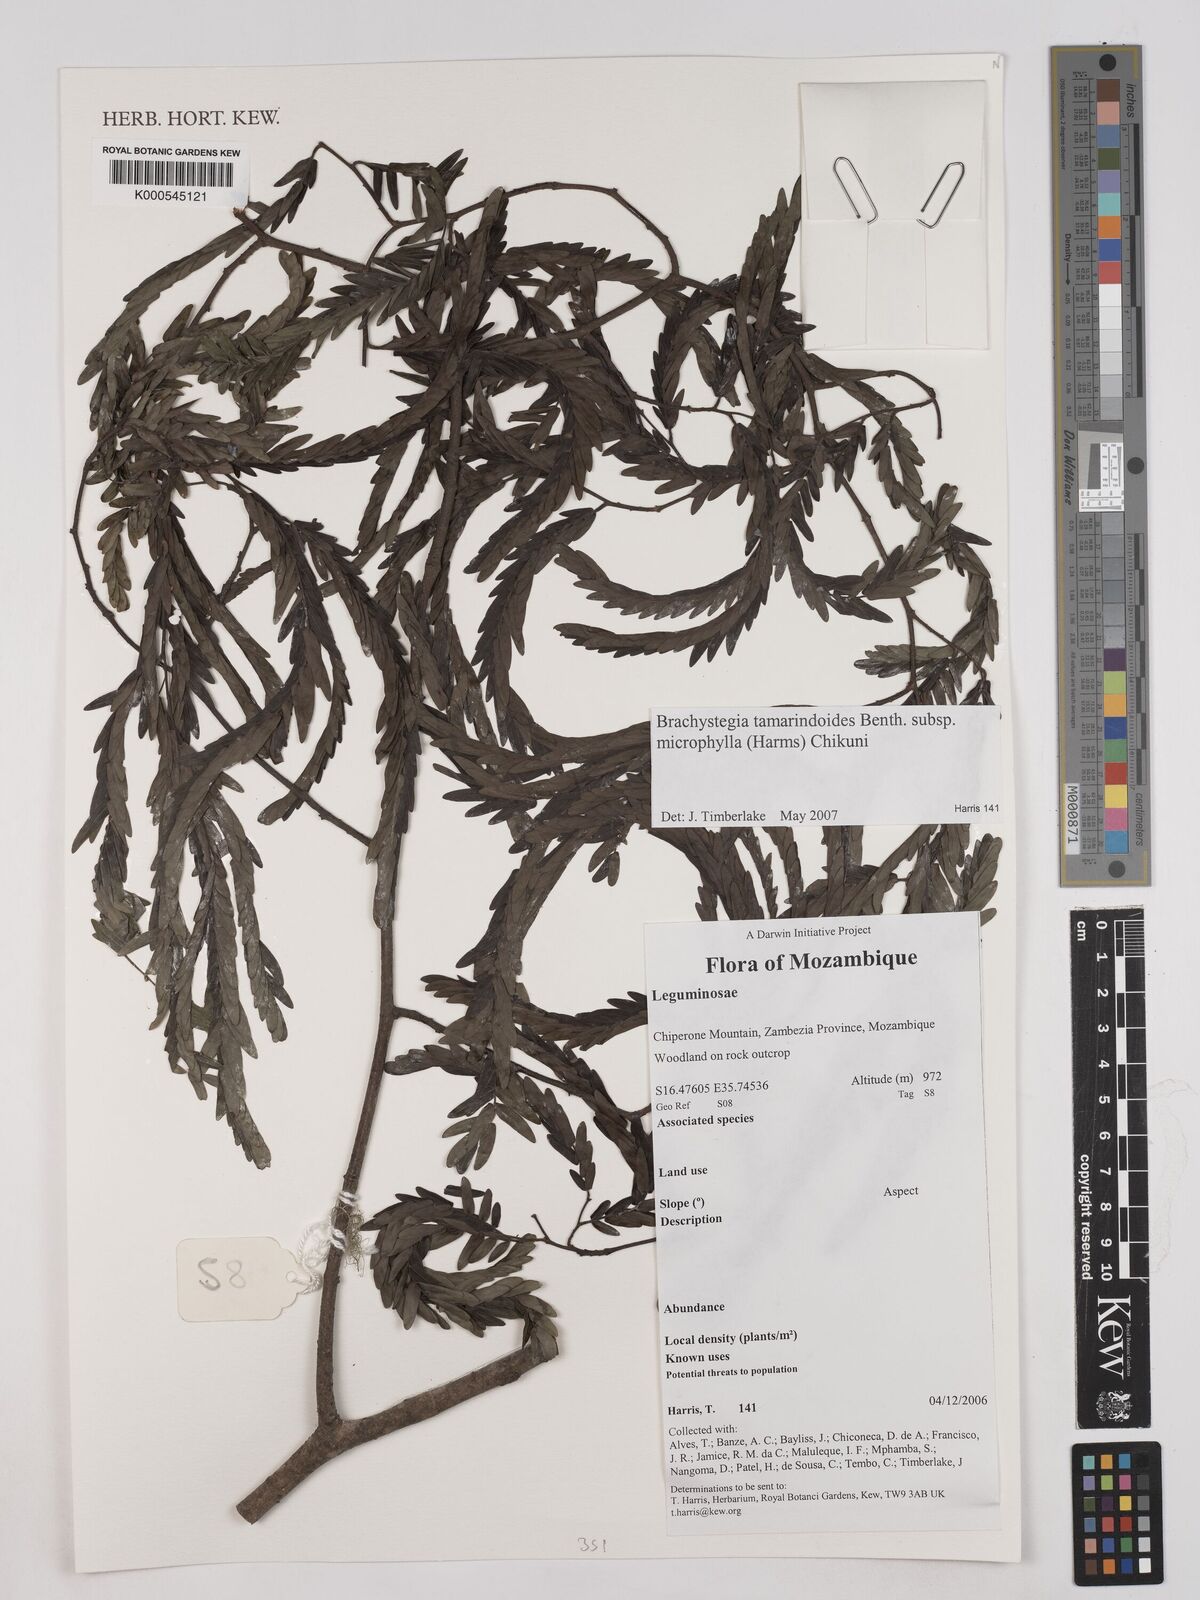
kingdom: Plantae
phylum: Tracheophyta
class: Magnoliopsida
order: Fabales
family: Fabaceae
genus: Brachystegia
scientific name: Brachystegia tamarindoides
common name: Mountain acacia
